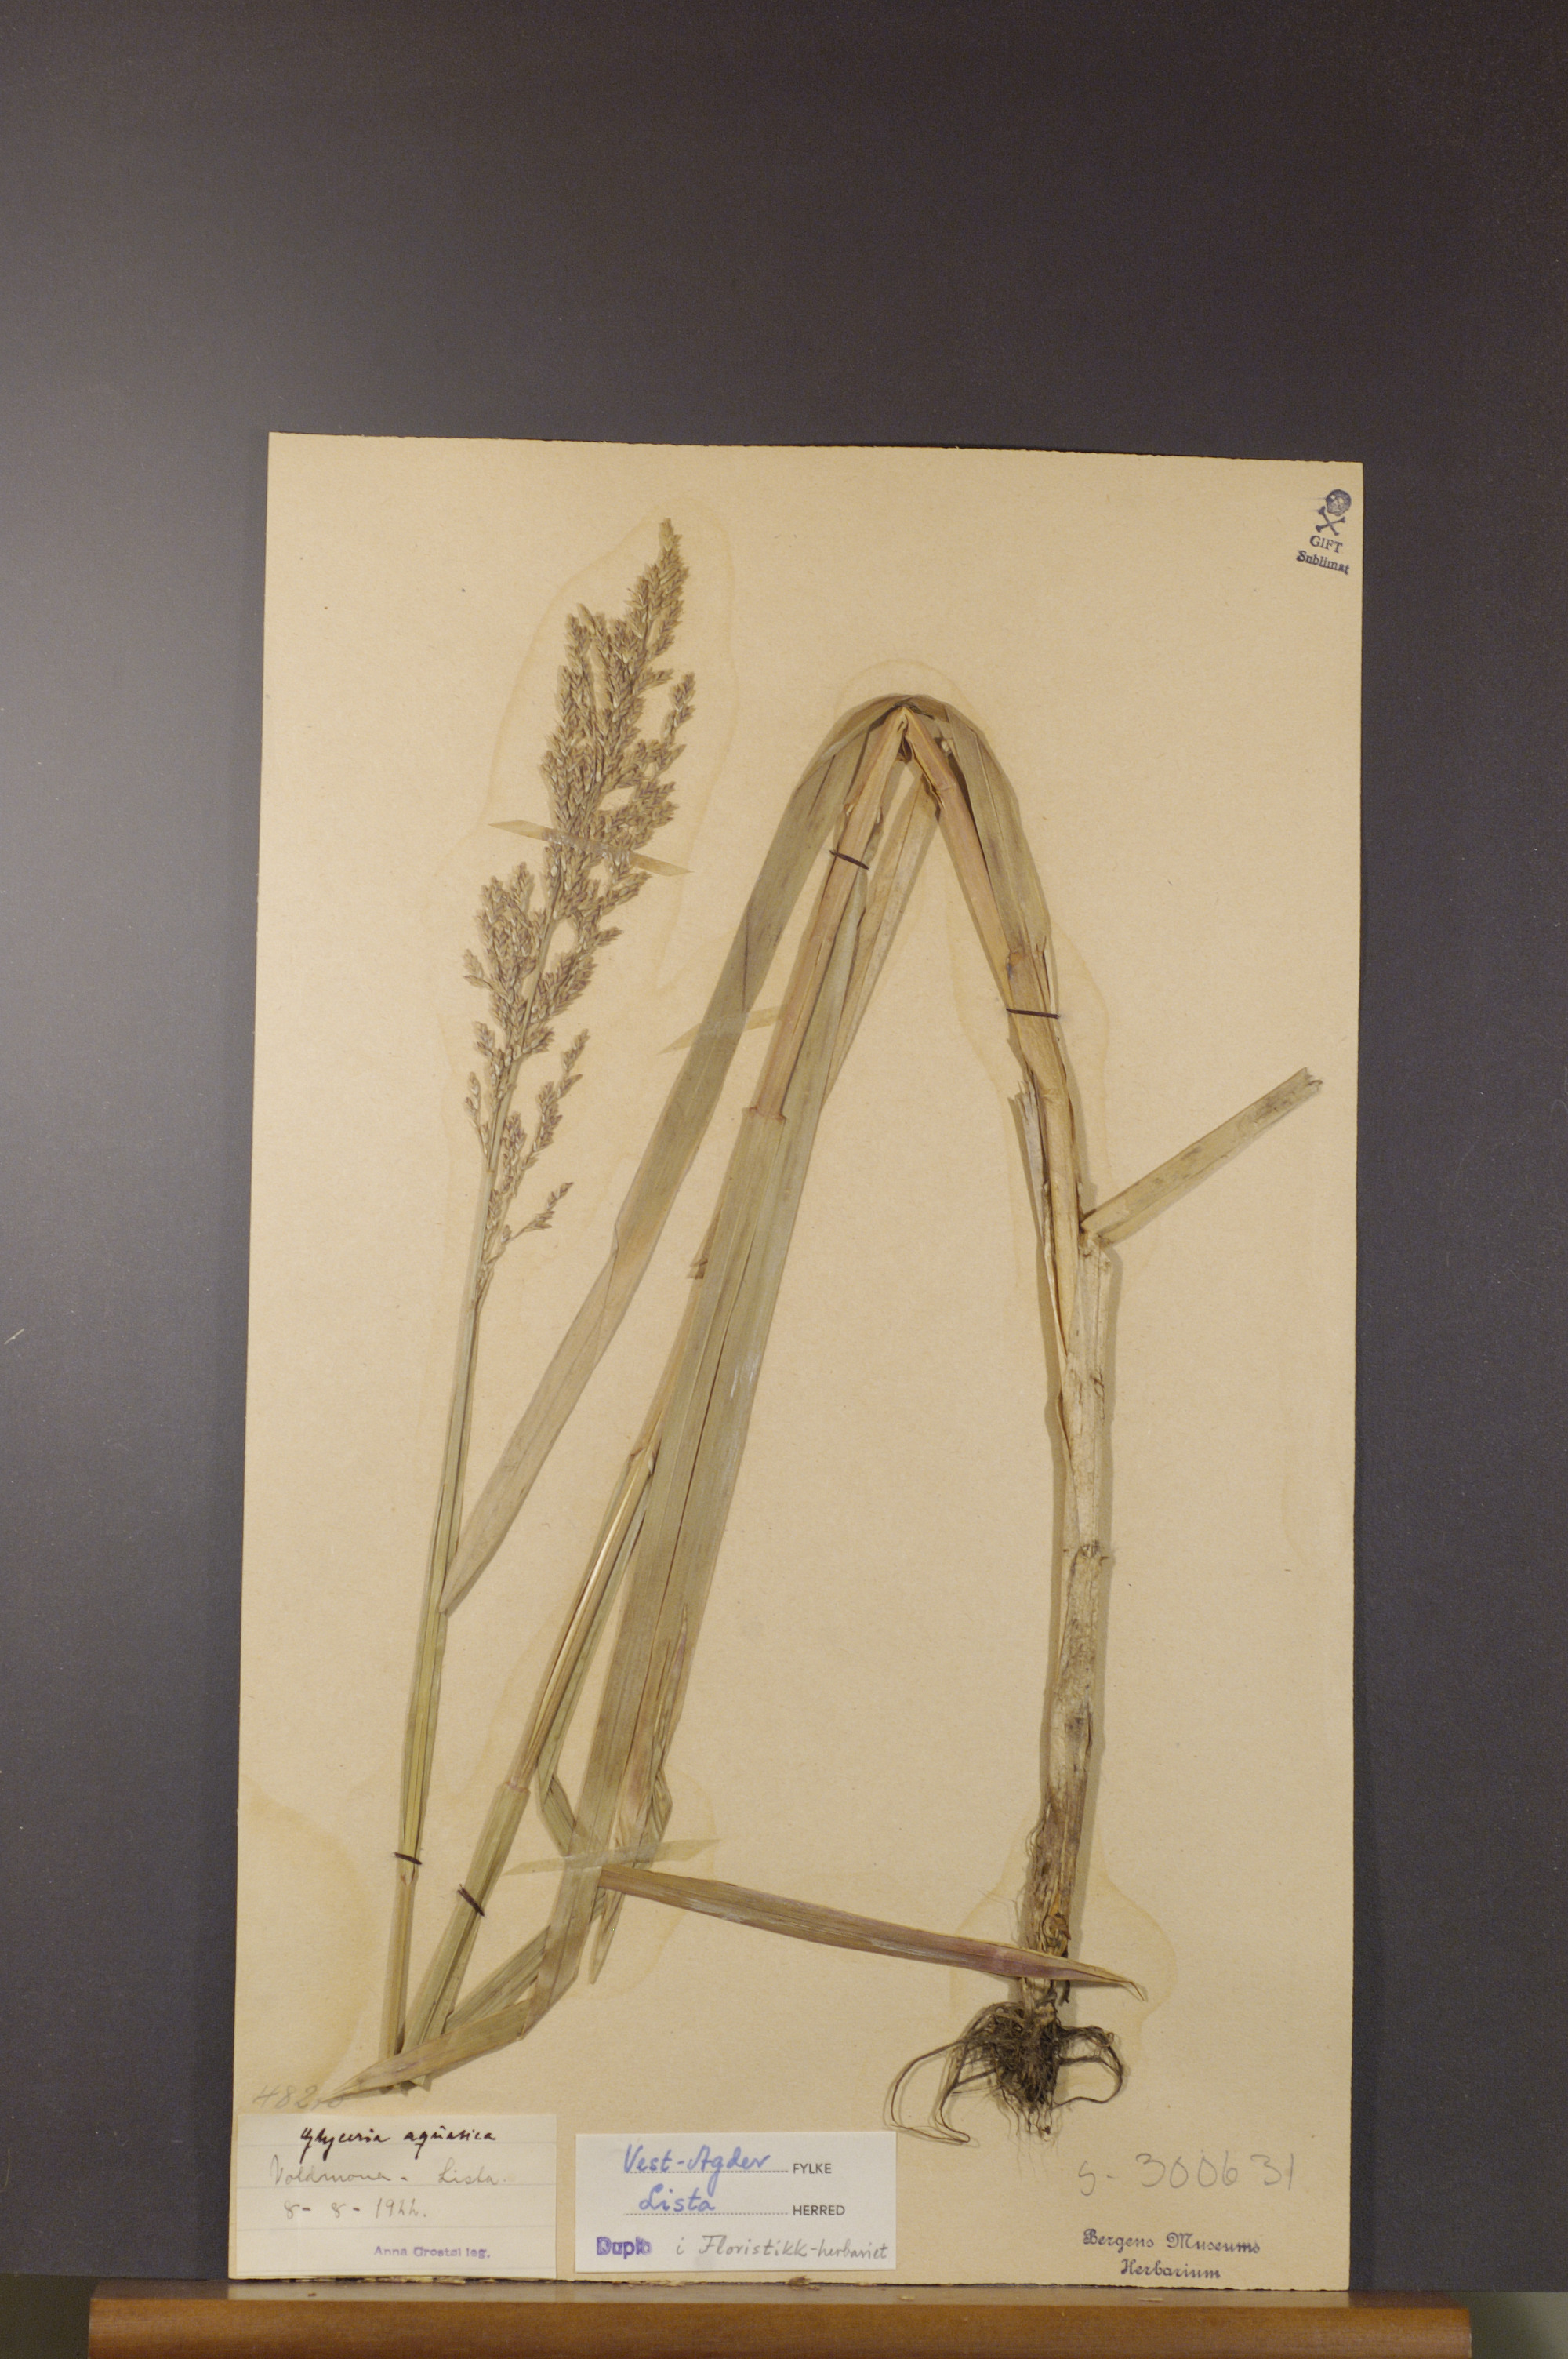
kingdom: Plantae
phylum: Tracheophyta
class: Liliopsida
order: Poales
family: Poaceae
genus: Glyceria
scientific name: Glyceria maxima
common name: Reed mannagrass
